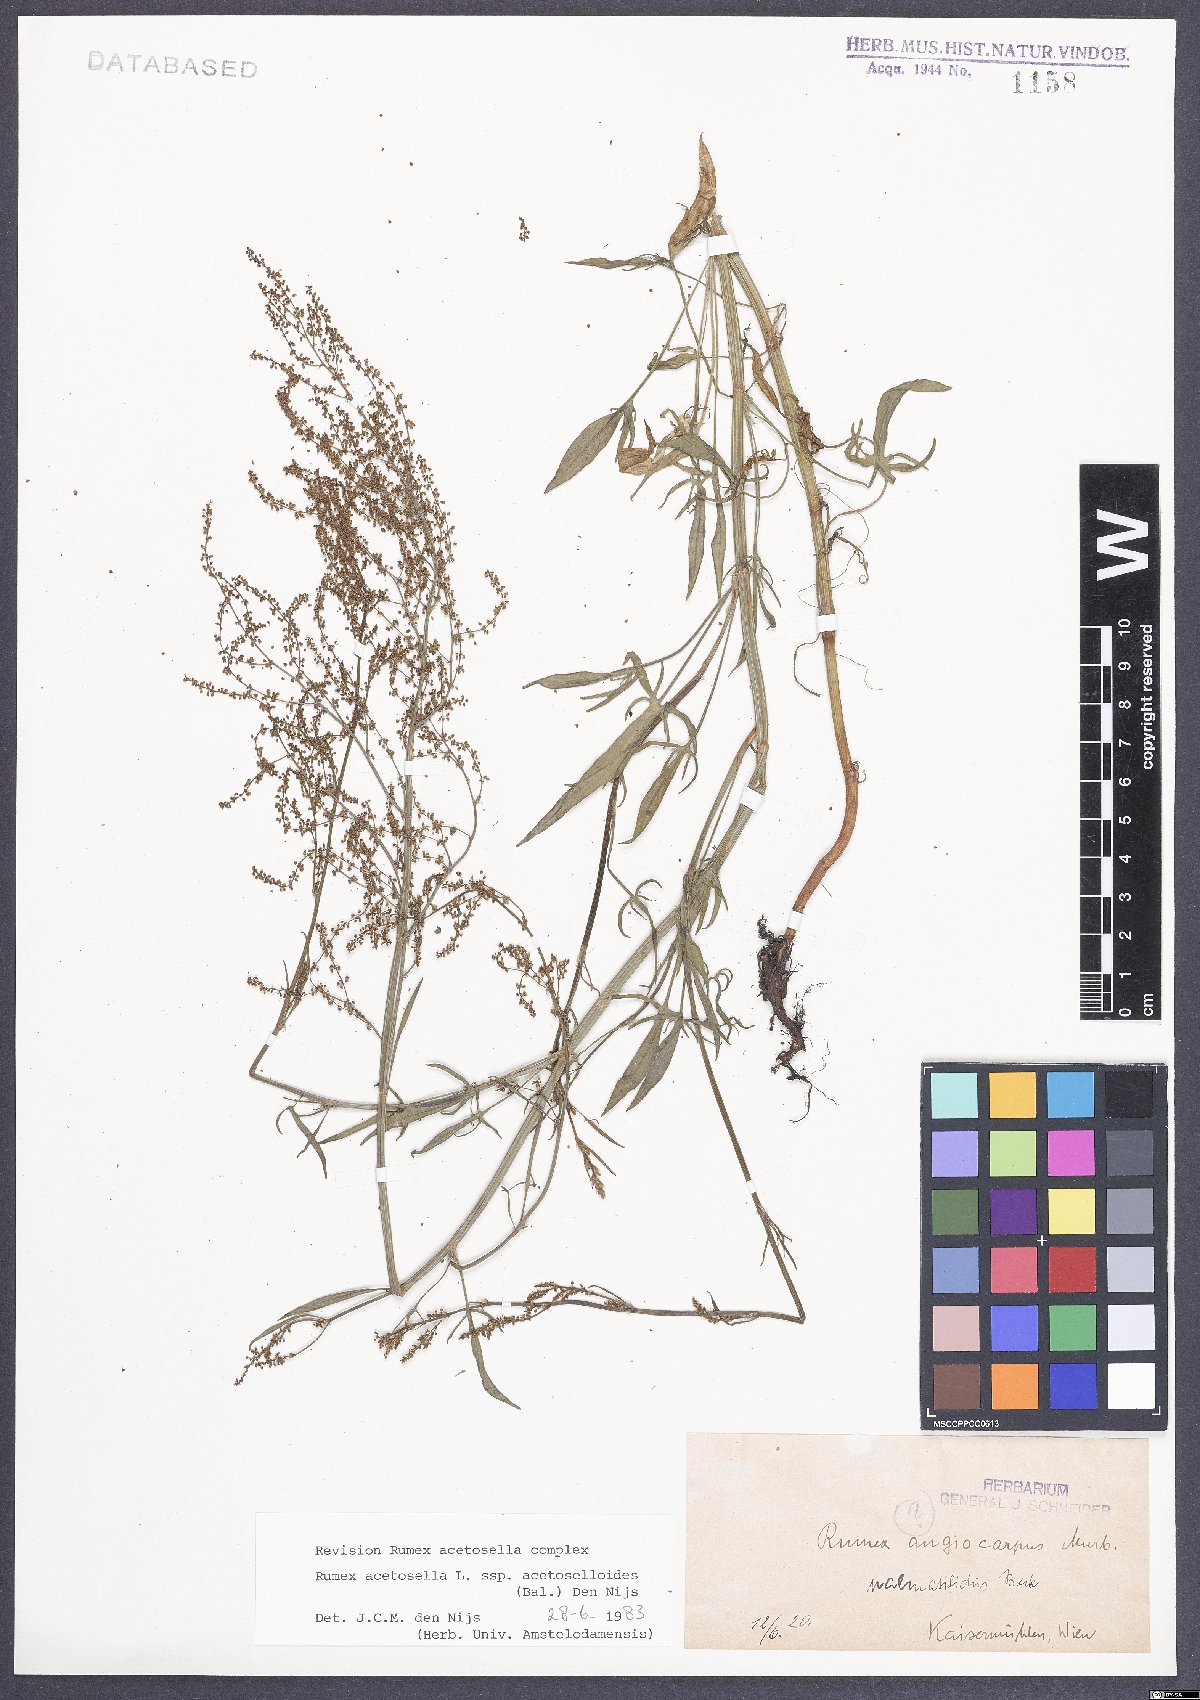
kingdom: Plantae
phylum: Tracheophyta
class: Magnoliopsida
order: Caryophyllales
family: Polygonaceae
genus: Rumex
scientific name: Rumex acetosella
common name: Common sheep sorrel
